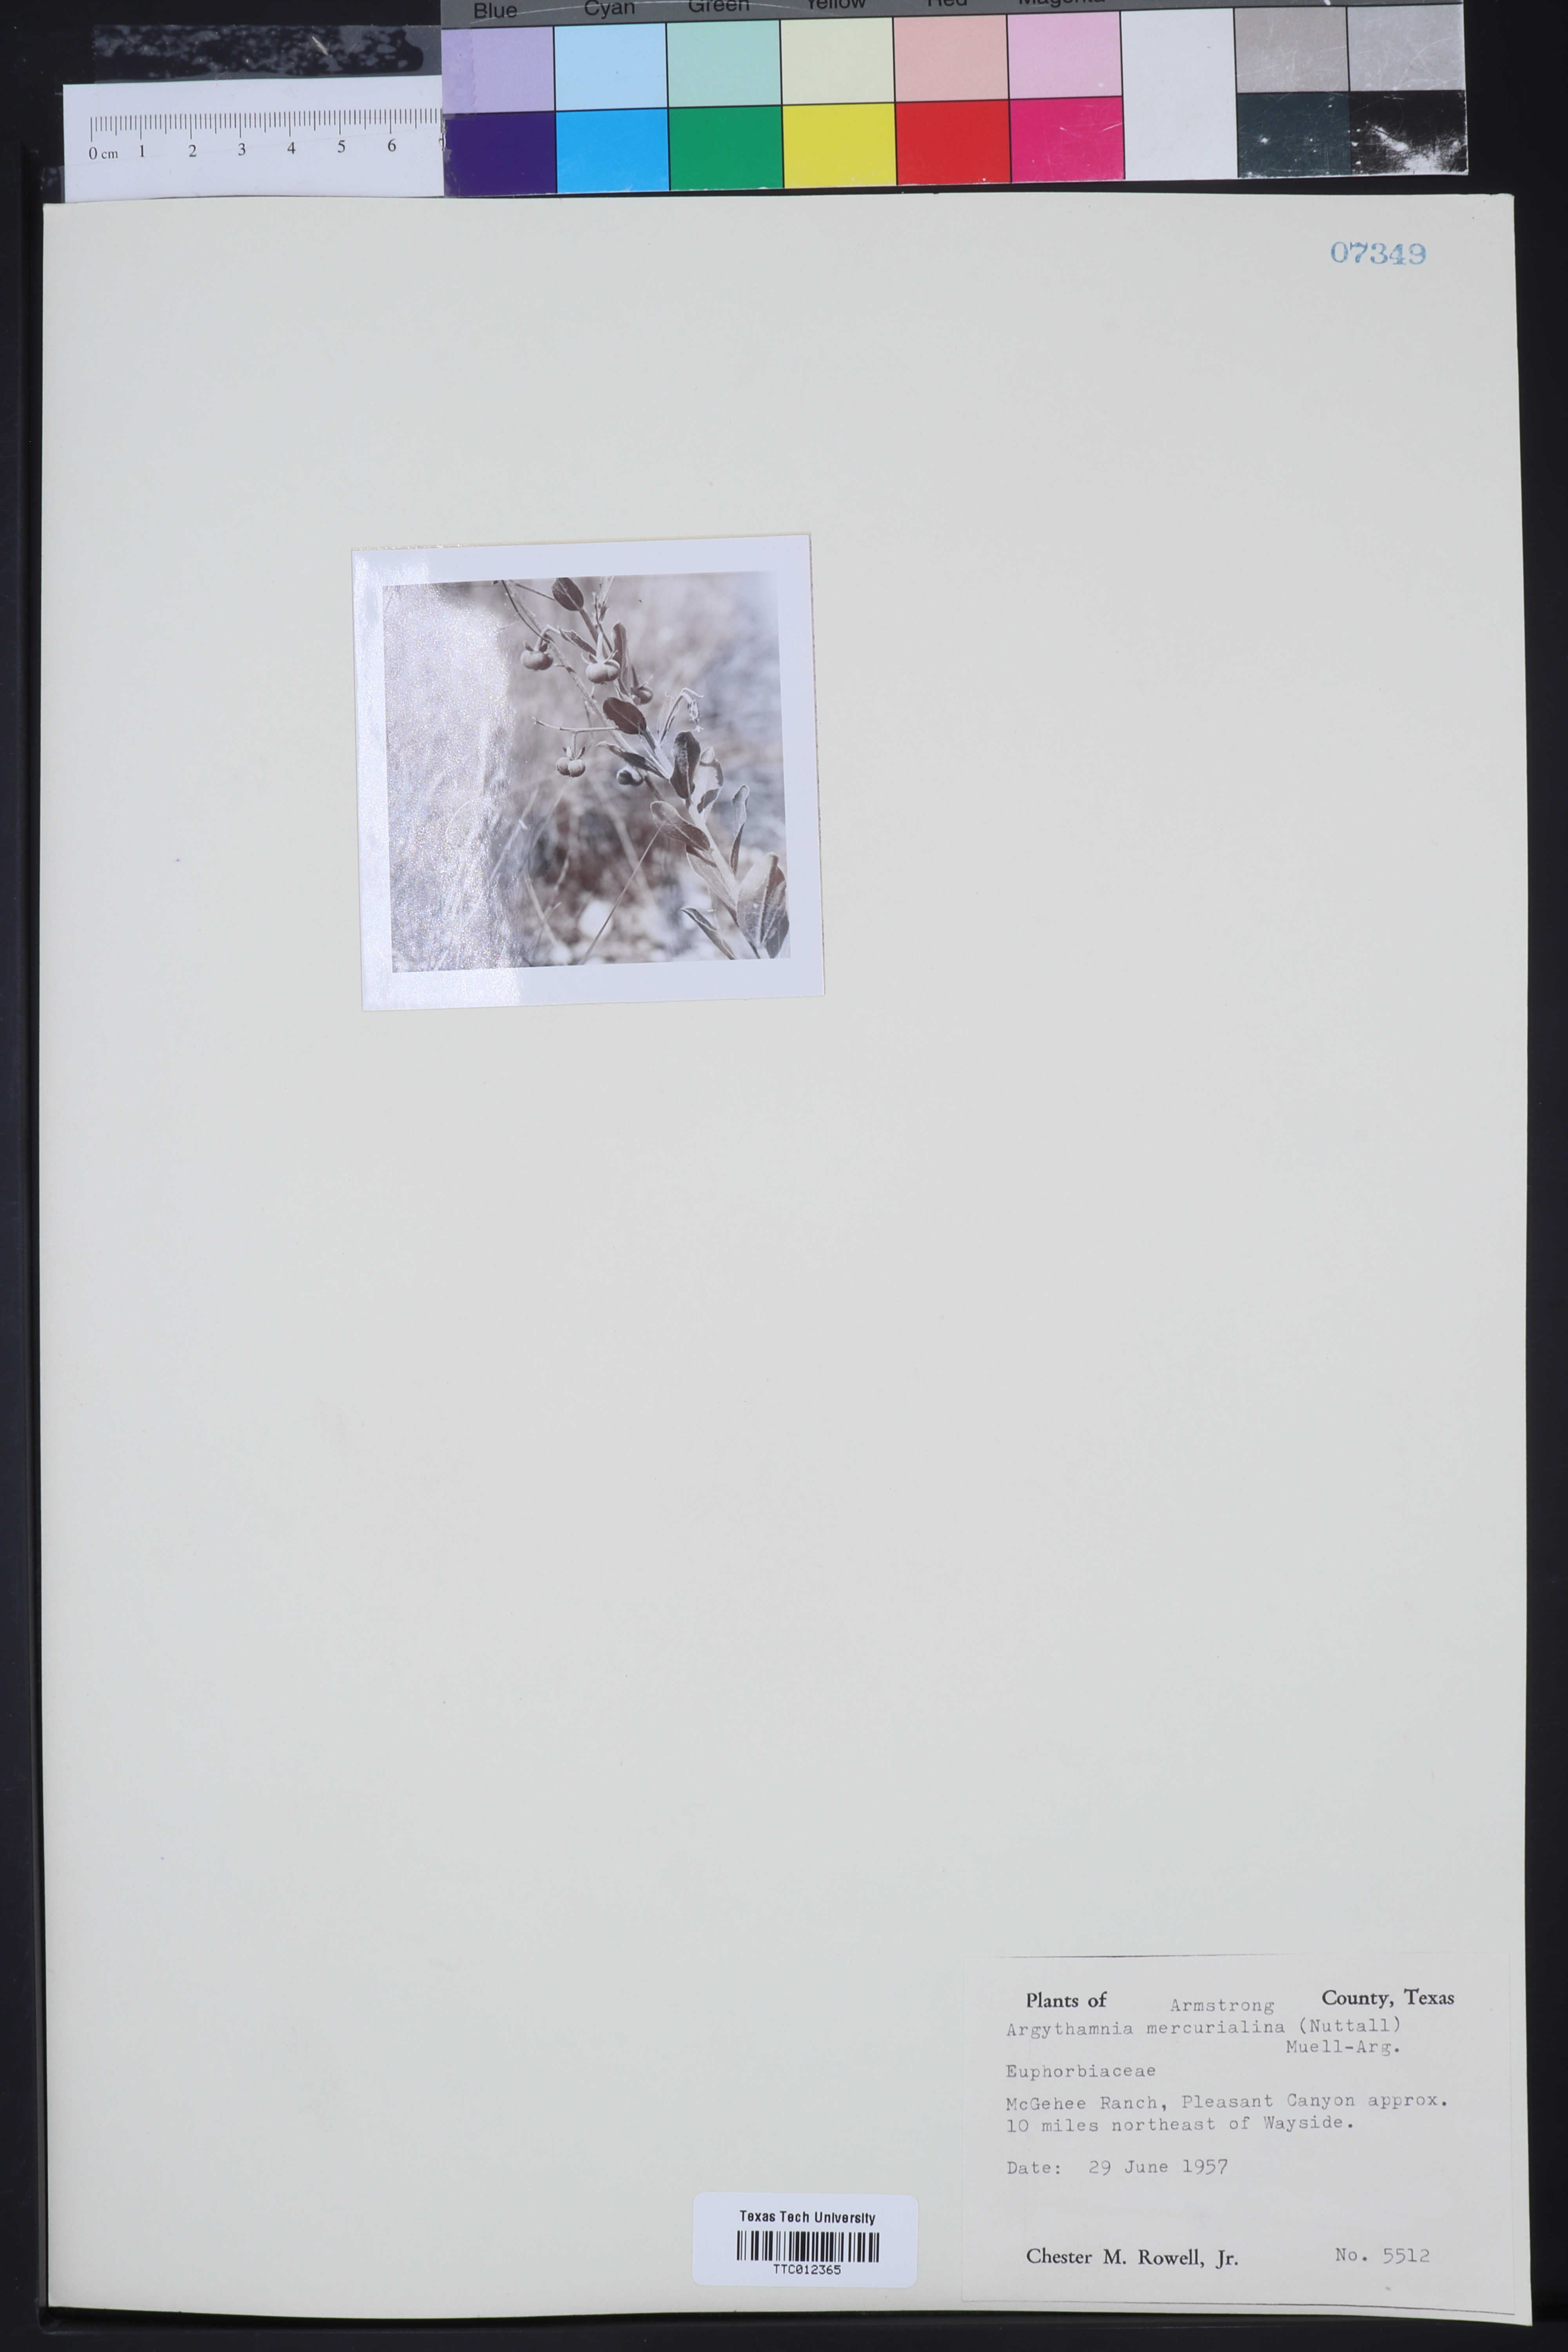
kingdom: Plantae
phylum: Tracheophyta
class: Magnoliopsida
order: Malpighiales
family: Euphorbiaceae
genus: Ditaxis
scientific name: Ditaxis mercurialina
